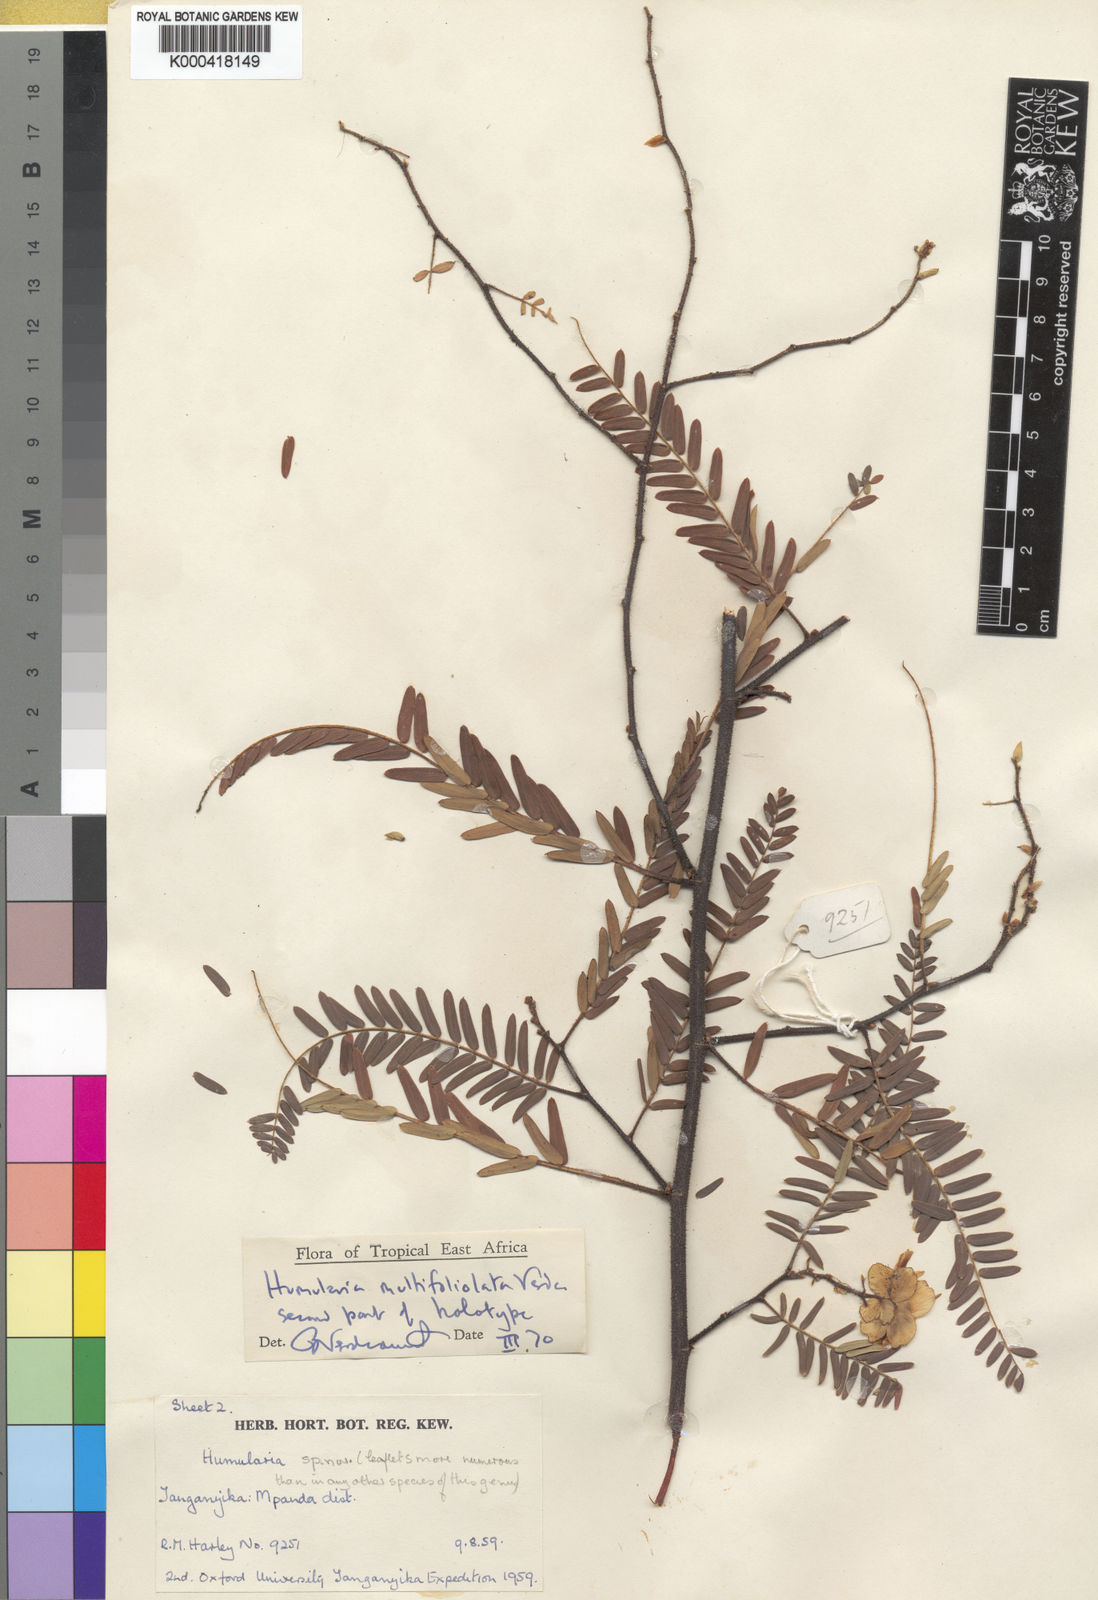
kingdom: Plantae
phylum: Tracheophyta
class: Magnoliopsida
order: Fabales
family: Fabaceae
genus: Humularia
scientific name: Humularia multifoliolata
